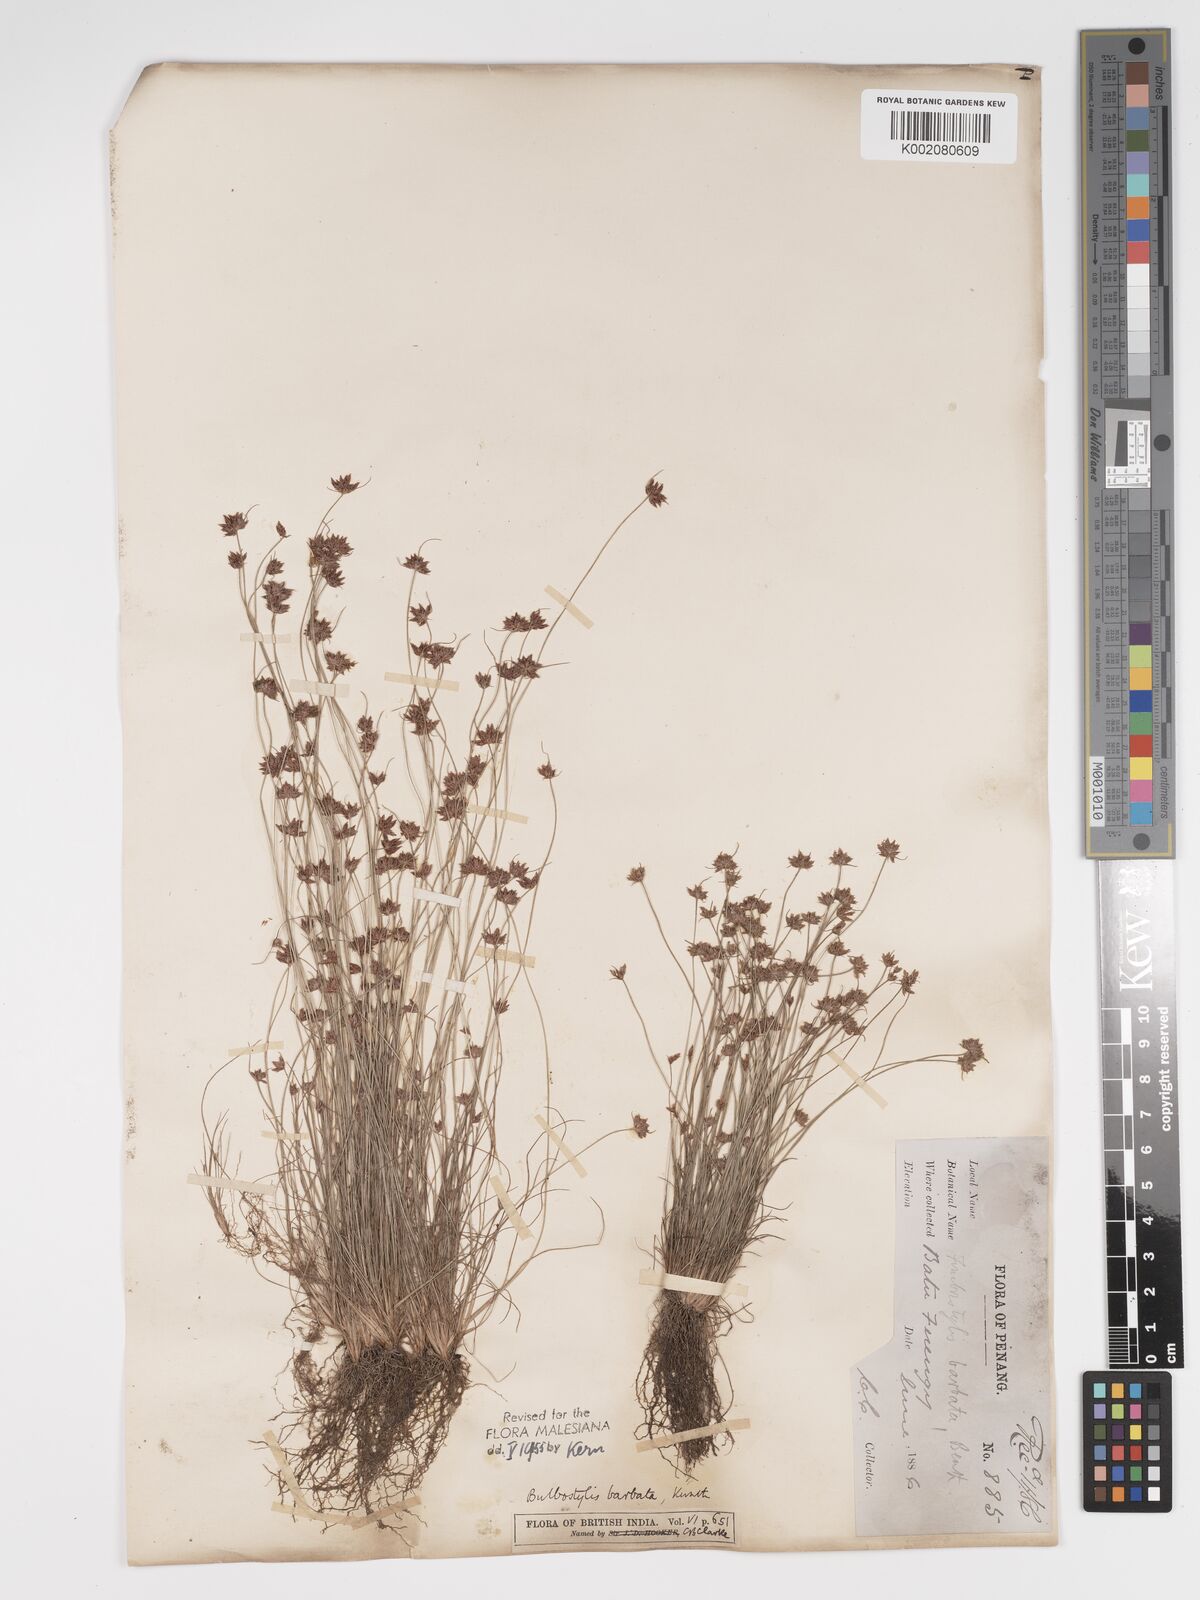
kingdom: Plantae
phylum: Tracheophyta
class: Liliopsida
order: Poales
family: Cyperaceae
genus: Bulbostylis
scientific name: Bulbostylis barbata
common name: Watergrass
